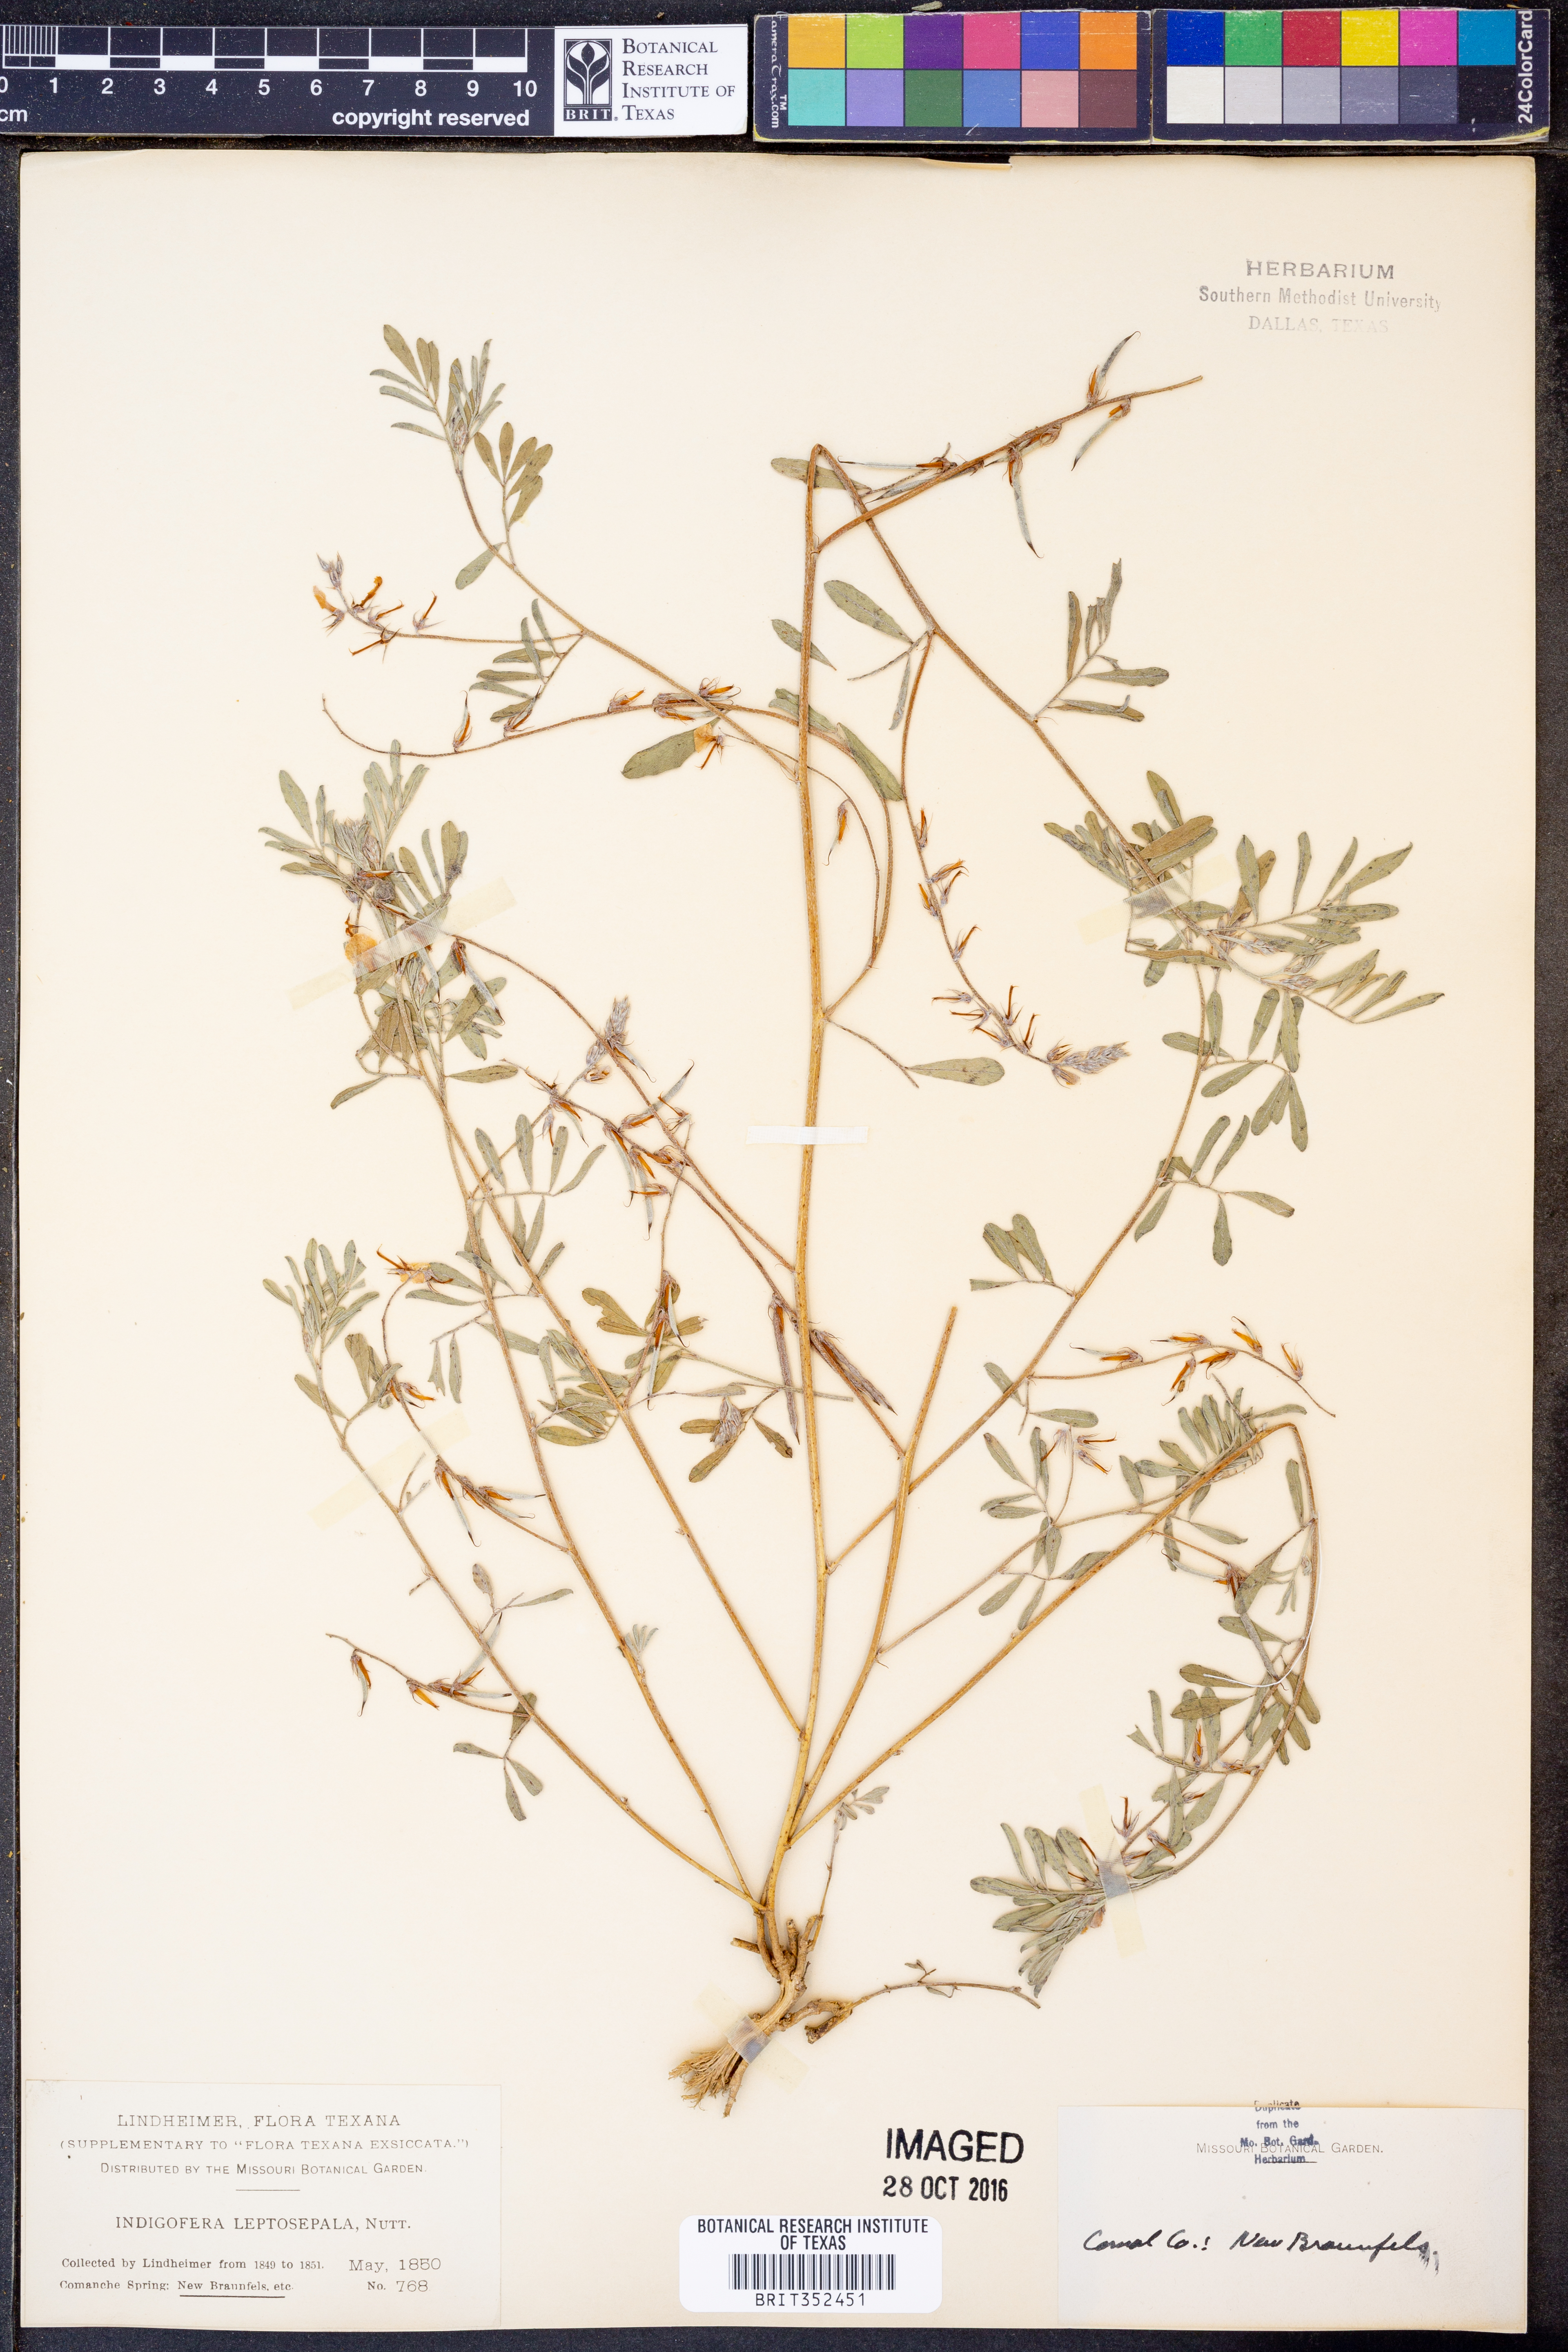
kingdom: Plantae
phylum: Tracheophyta
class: Magnoliopsida
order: Fabales
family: Fabaceae
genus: Indigofera
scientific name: Indigofera argutidens
